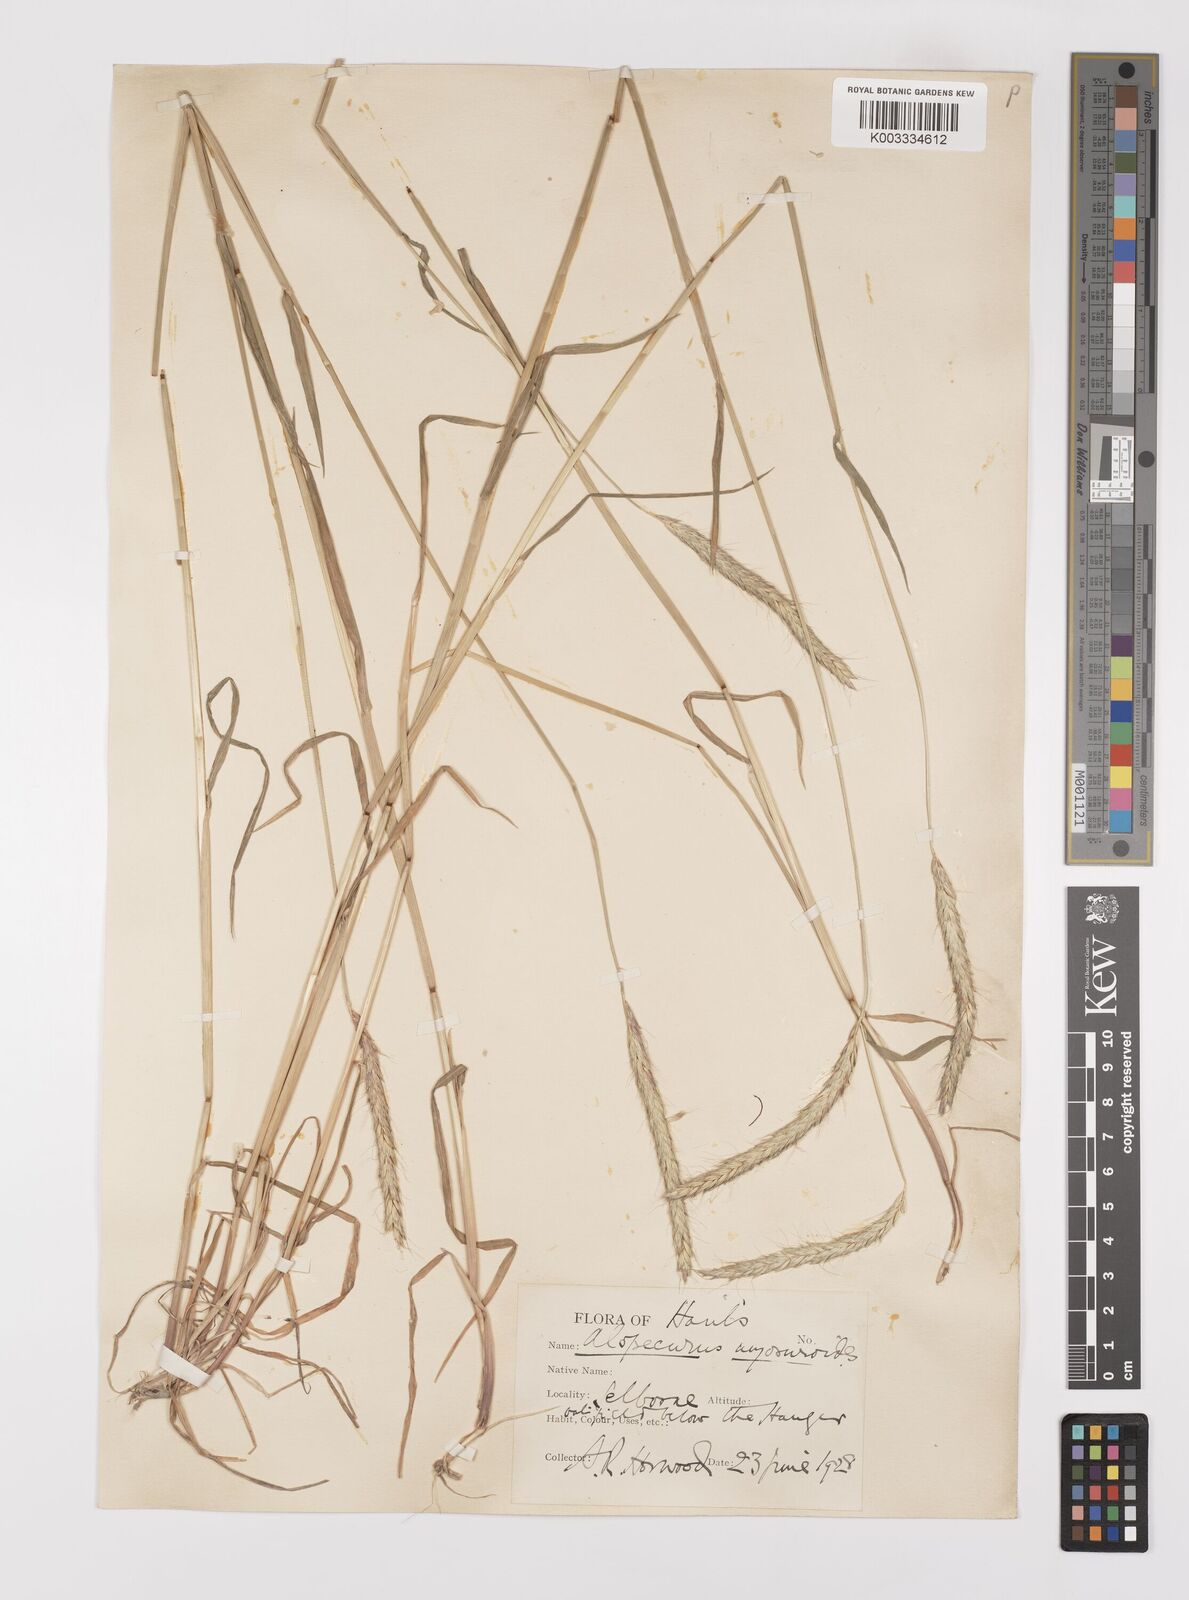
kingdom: Plantae
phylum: Tracheophyta
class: Liliopsida
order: Poales
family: Poaceae
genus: Alopecurus
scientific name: Alopecurus myosuroides
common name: Black-grass
